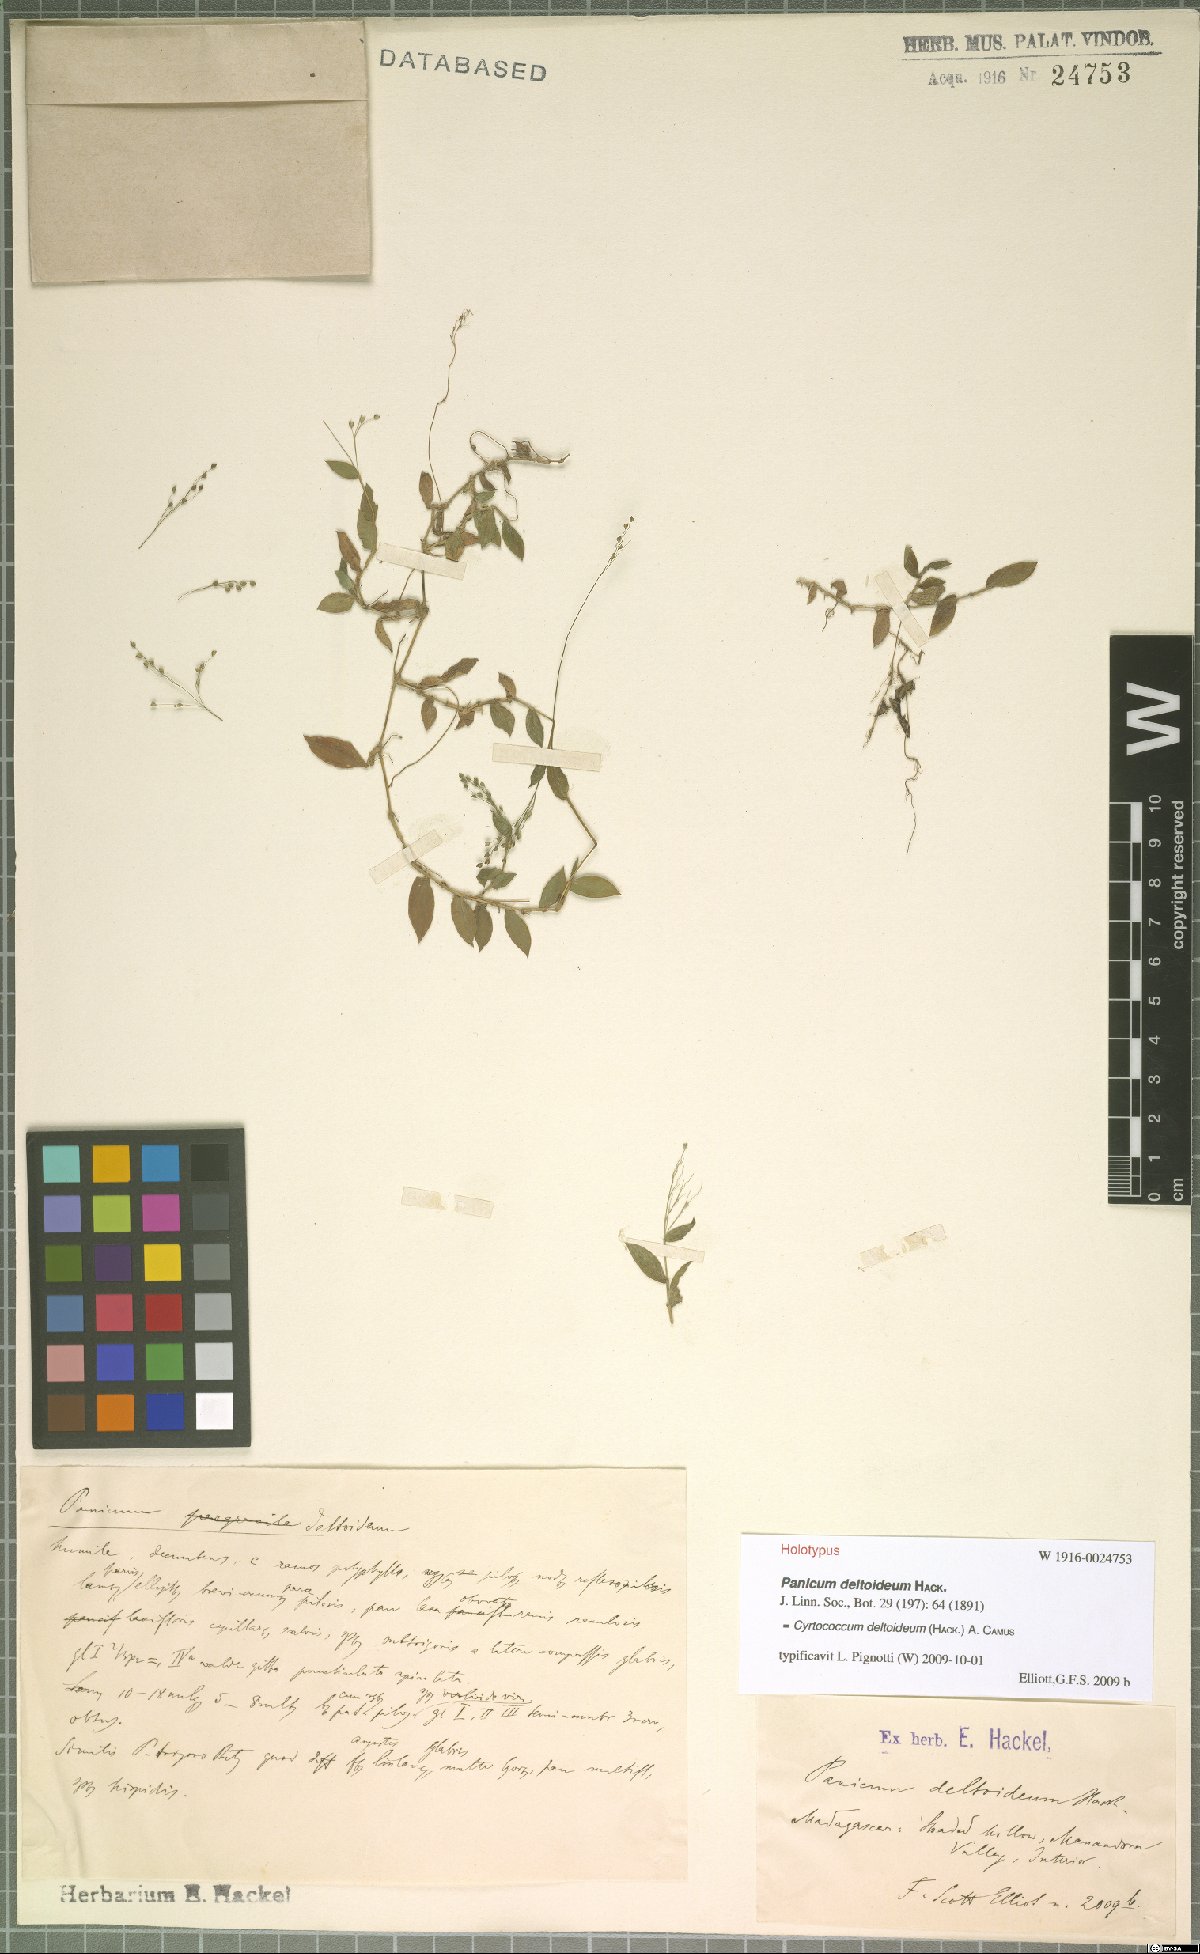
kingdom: Plantae
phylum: Tracheophyta
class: Liliopsida
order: Poales
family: Poaceae
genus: Cyrtococcum
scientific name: Cyrtococcum deltoideum
